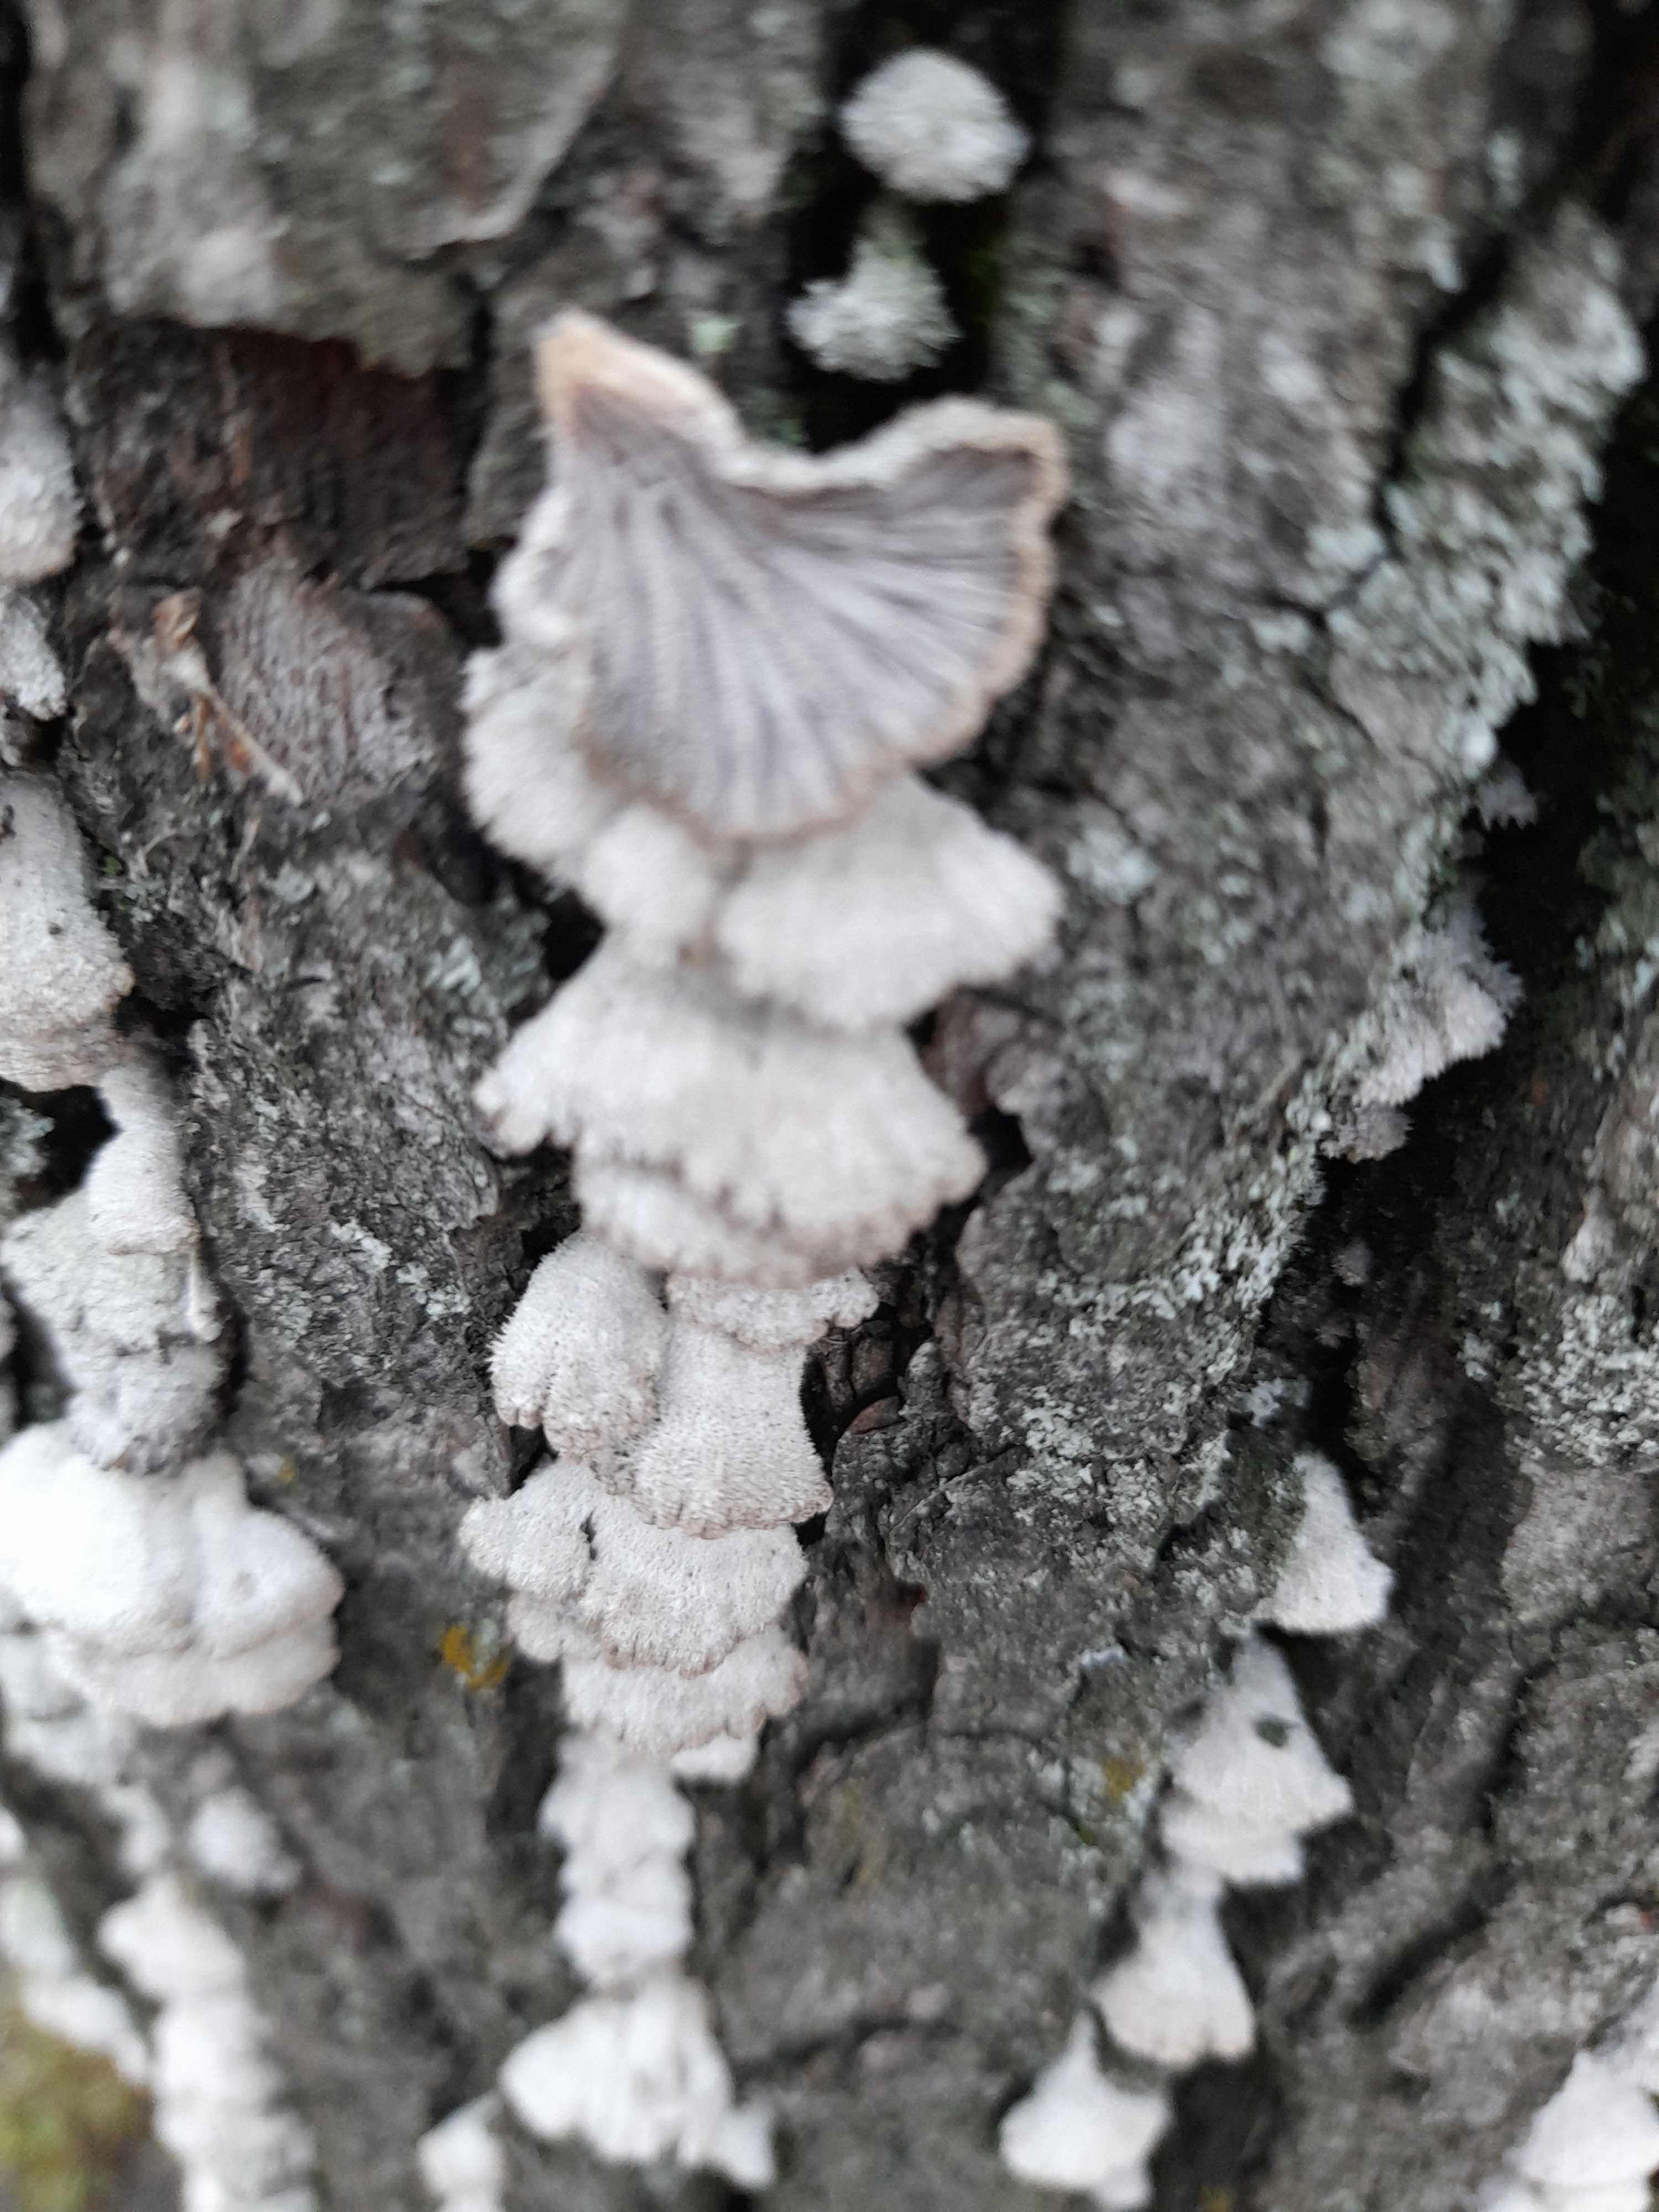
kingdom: Fungi
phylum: Basidiomycota
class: Agaricomycetes
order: Agaricales
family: Schizophyllaceae
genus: Schizophyllum
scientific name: Schizophyllum commune
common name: kløvblad
